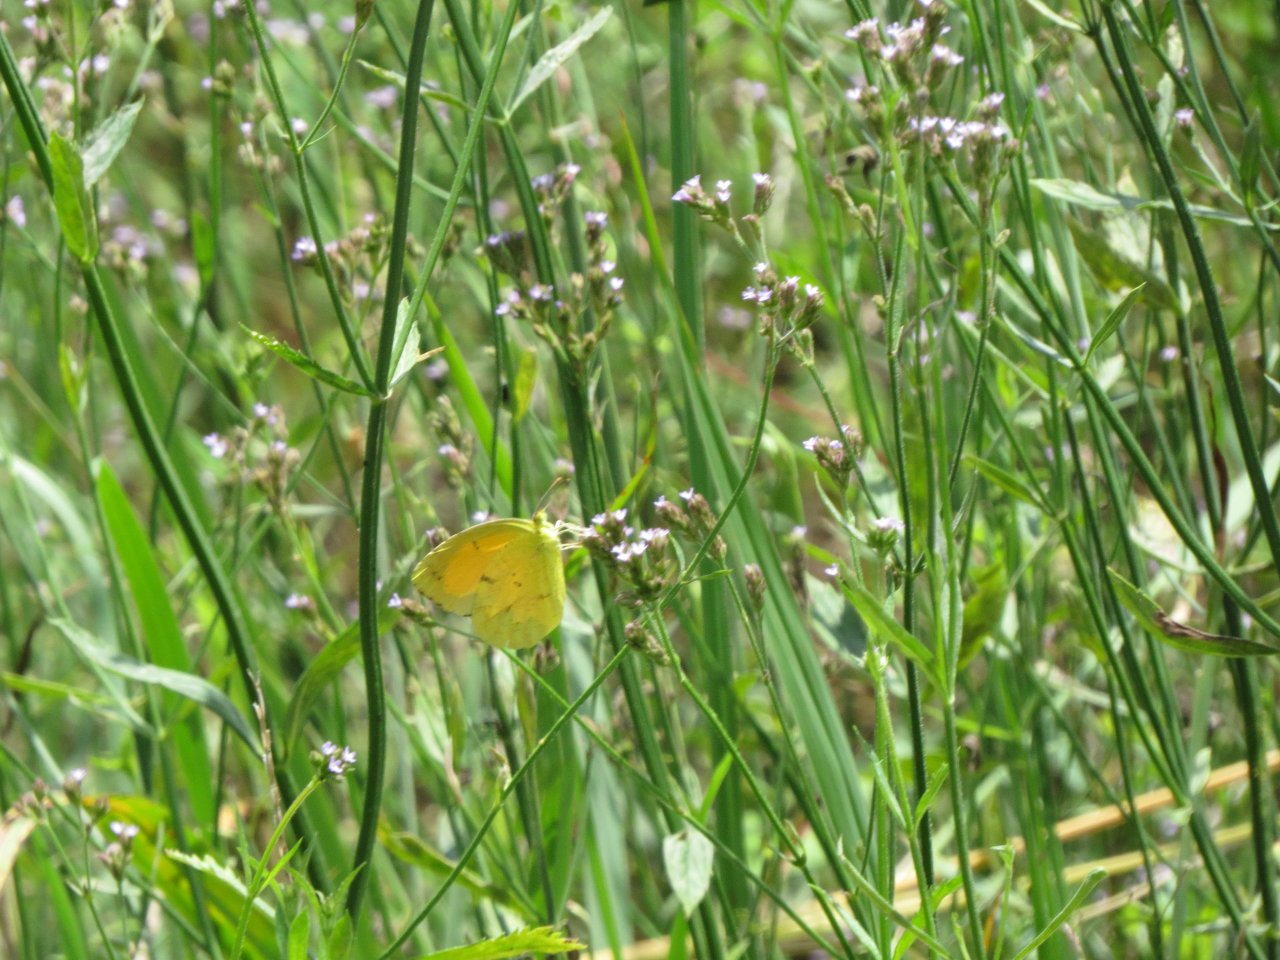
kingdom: Animalia
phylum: Arthropoda
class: Insecta
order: Lepidoptera
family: Pieridae
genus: Abaeis
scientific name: Abaeis nicippe
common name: Sleepy Orange
